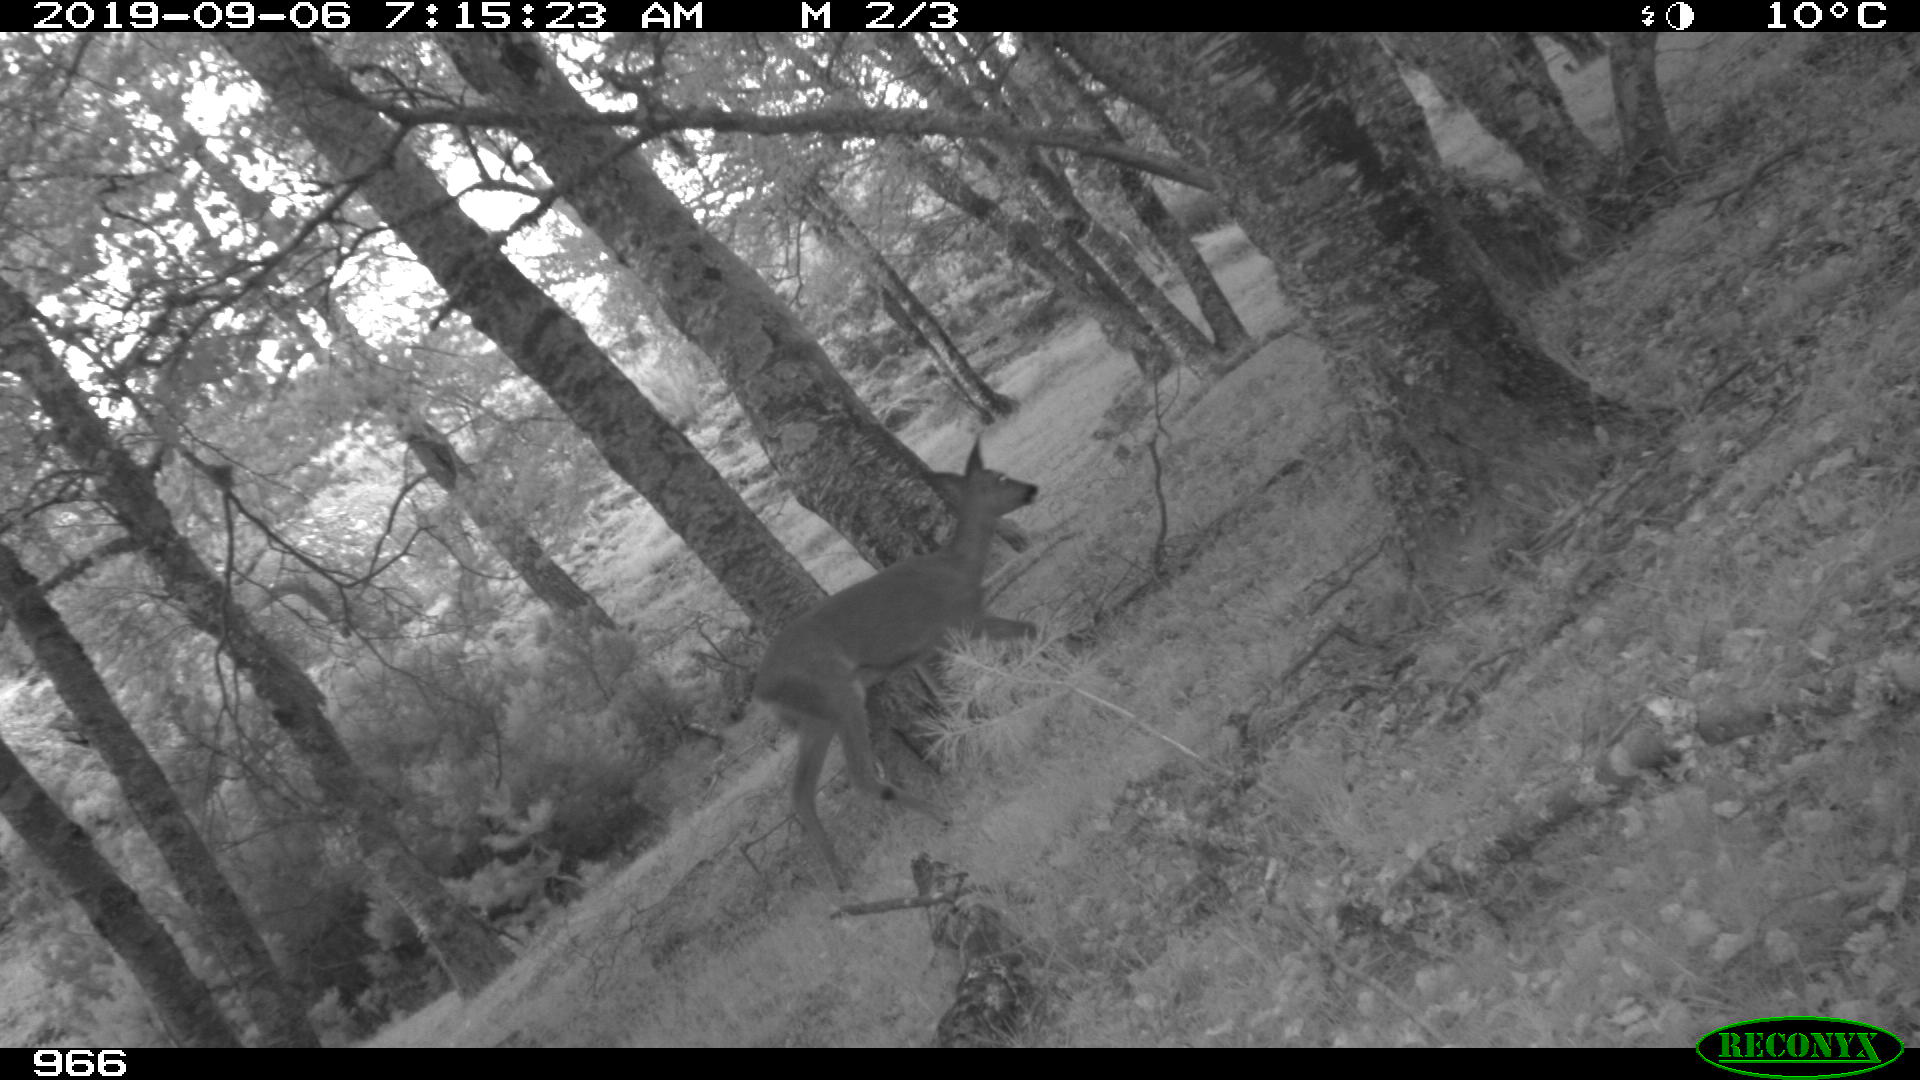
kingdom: Animalia
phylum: Chordata
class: Mammalia
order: Artiodactyla
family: Cervidae
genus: Capreolus
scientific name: Capreolus capreolus
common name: Western roe deer
